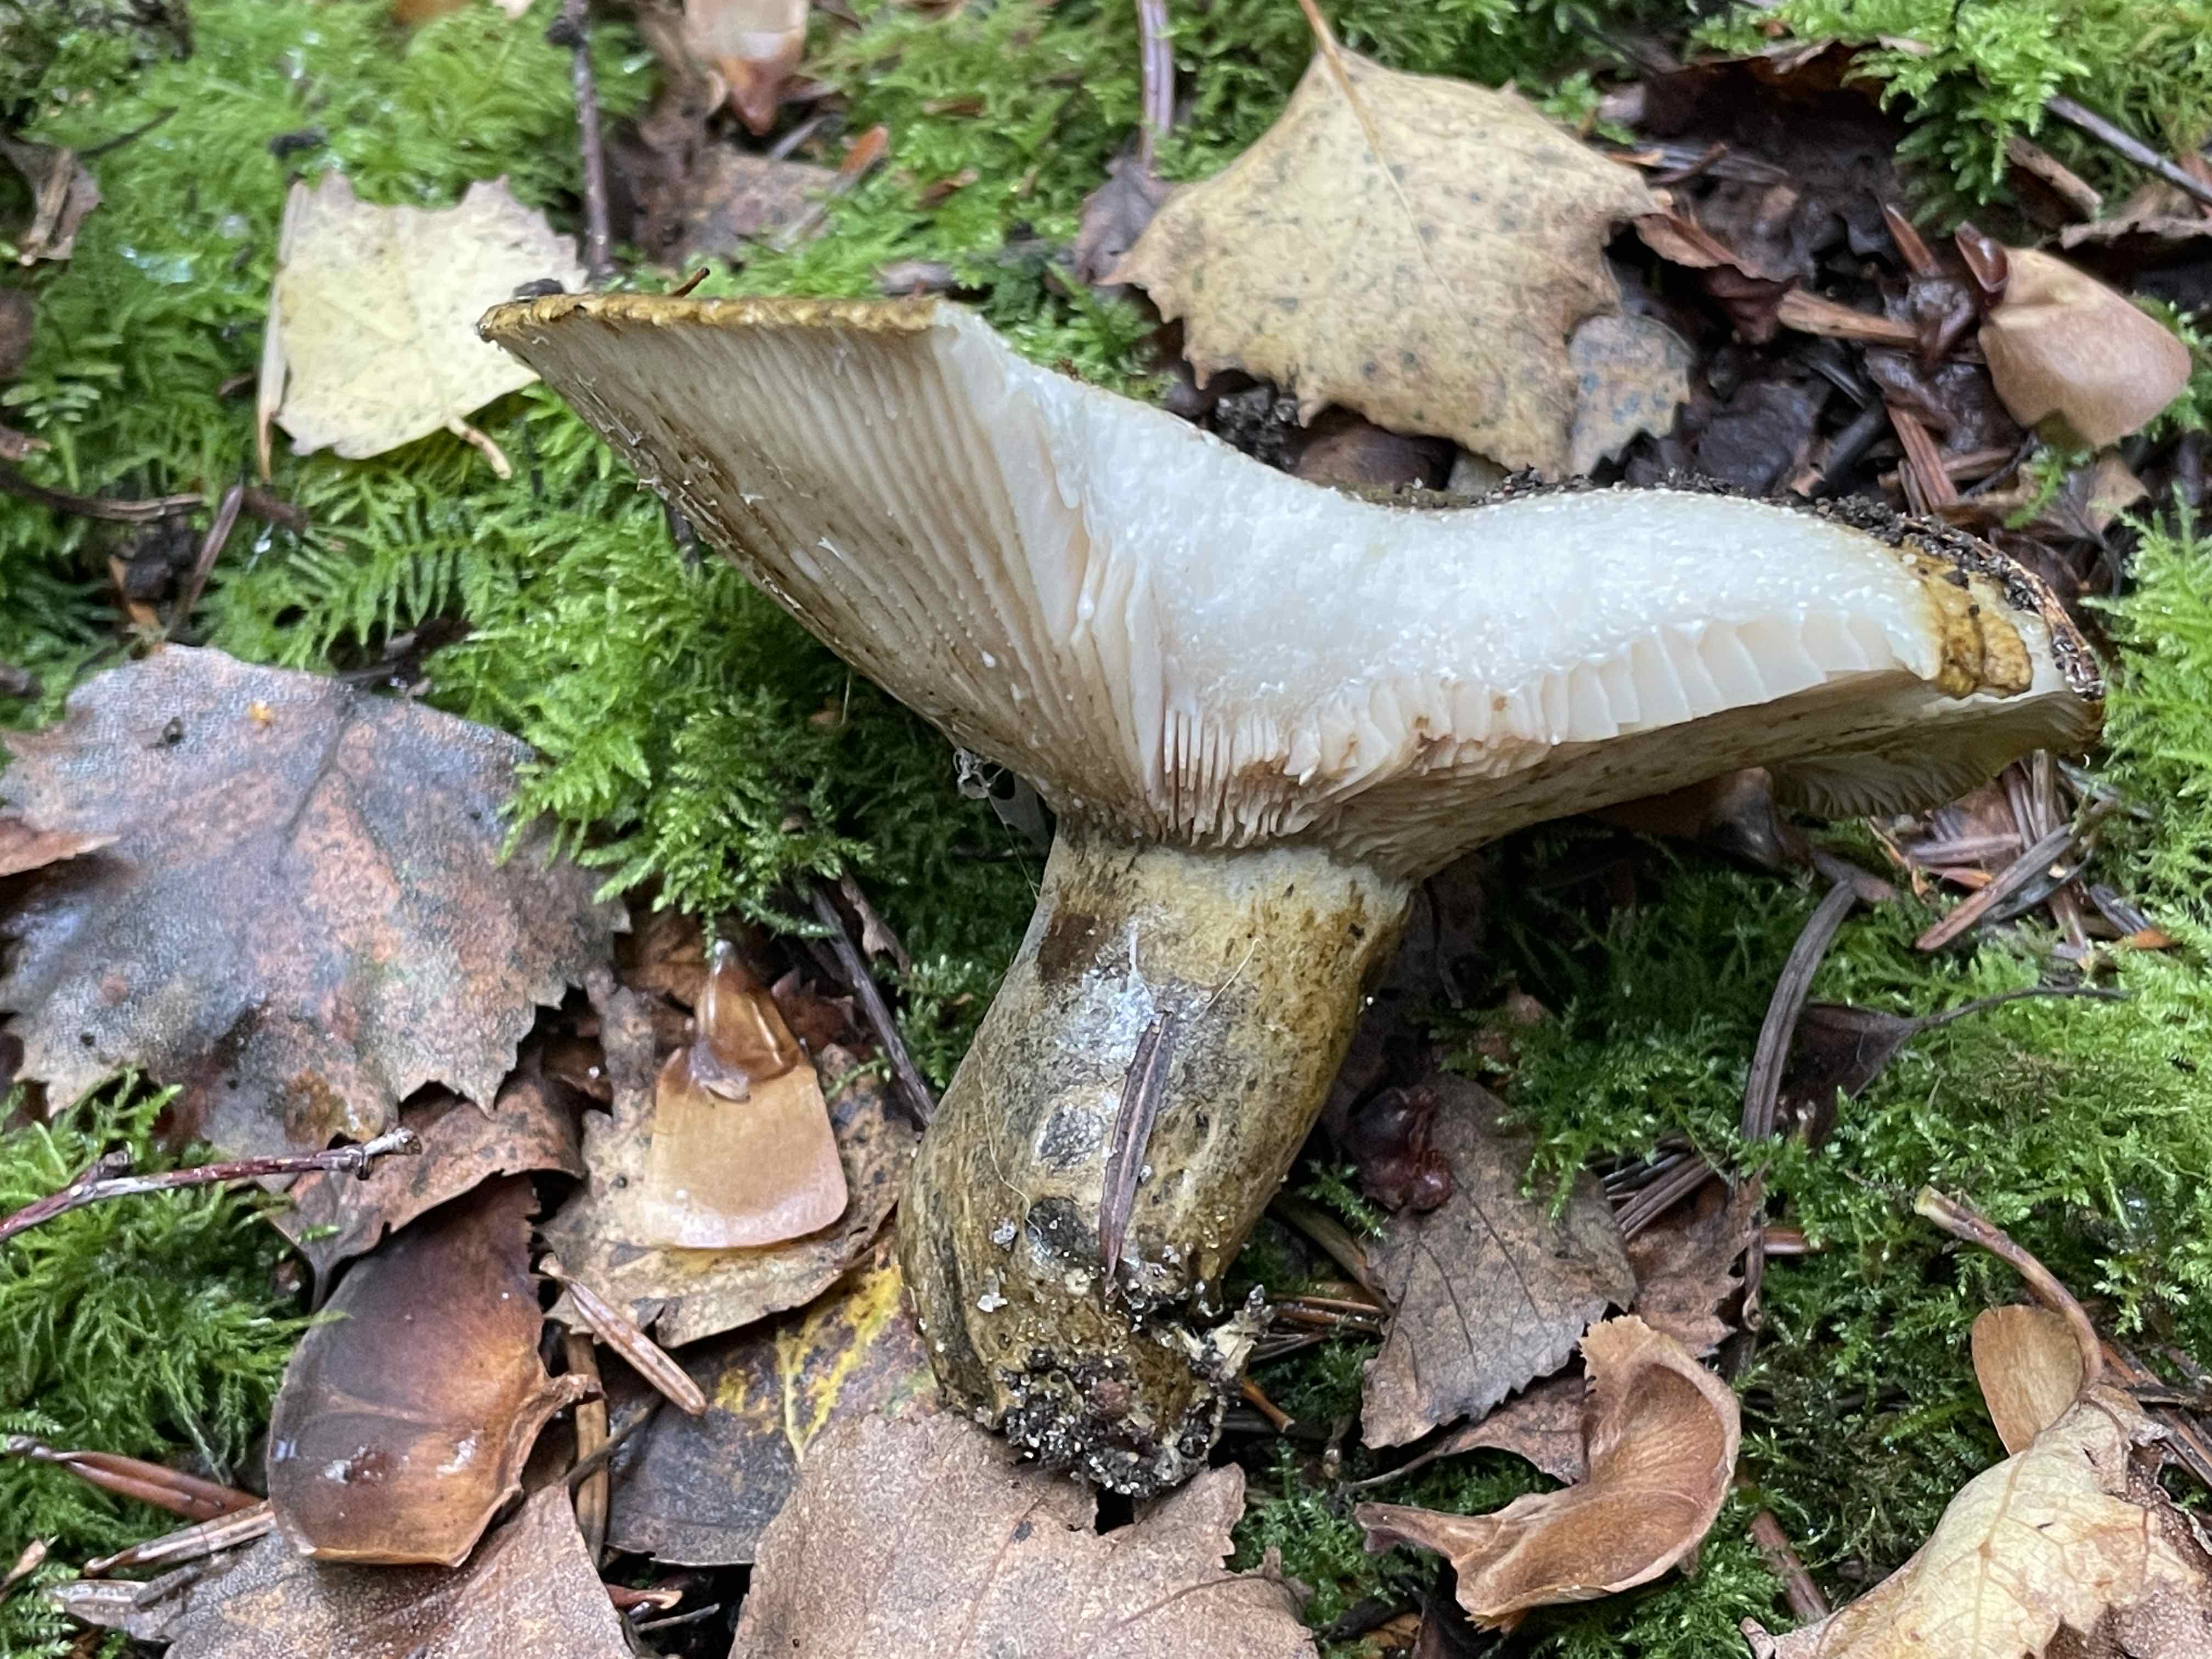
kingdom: Fungi
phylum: Basidiomycota
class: Agaricomycetes
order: Russulales
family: Russulaceae
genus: Lactarius
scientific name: Lactarius necator
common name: manddraber-mælkehat
